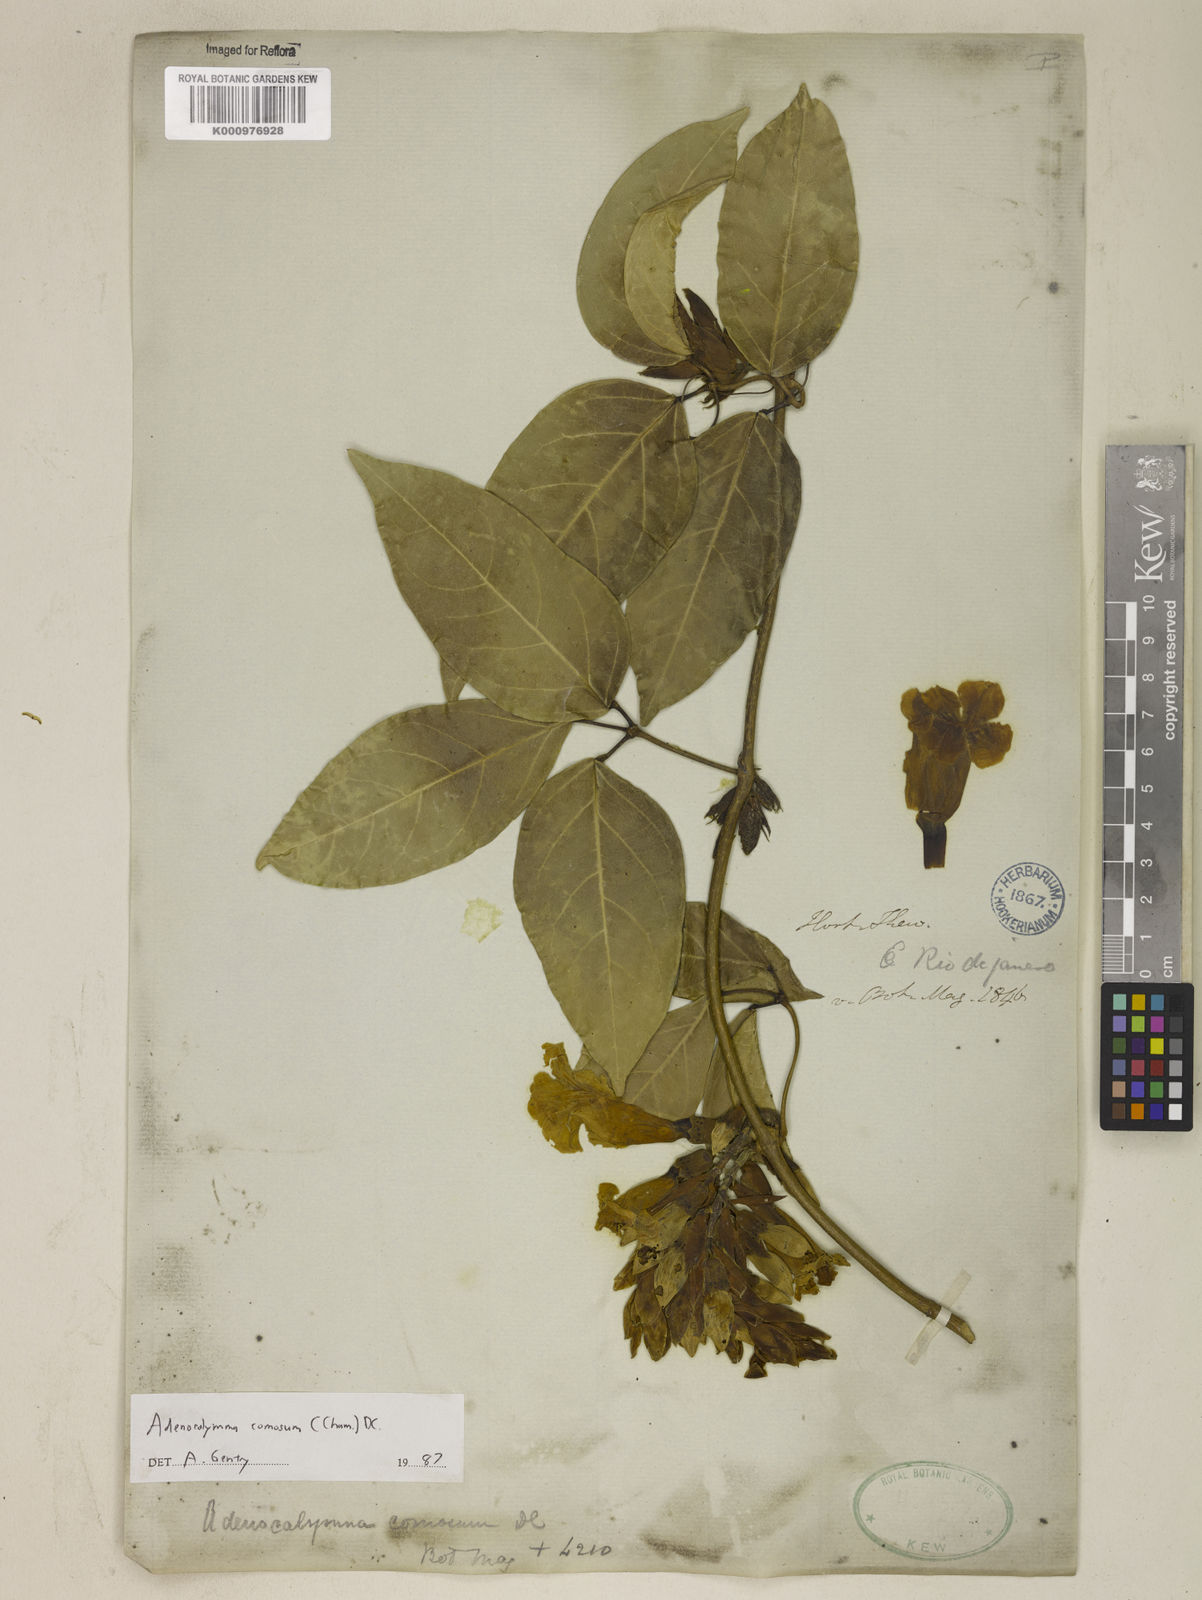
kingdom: Plantae
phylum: Tracheophyta
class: Magnoliopsida
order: Lamiales
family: Bignoniaceae
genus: Adenocalymma
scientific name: Adenocalymma acutissimum
